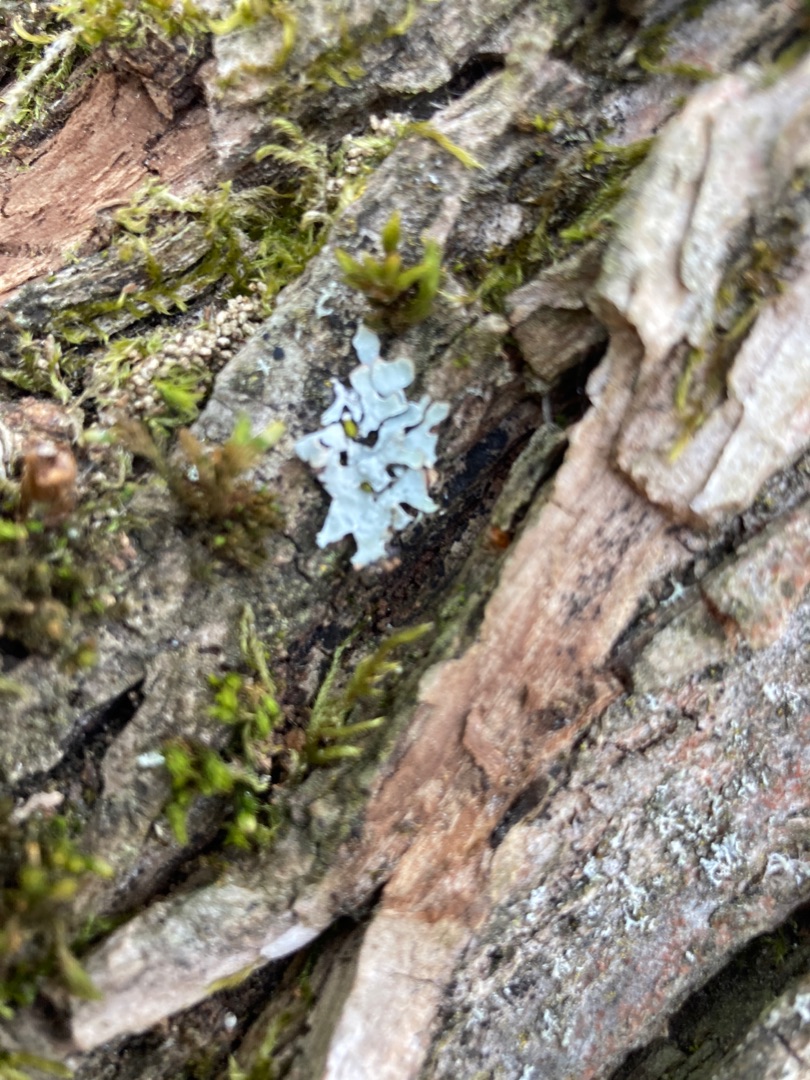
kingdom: Fungi
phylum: Ascomycota
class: Lecanoromycetes
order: Lecanorales
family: Parmeliaceae
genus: Parmelia
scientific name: Parmelia sulcata
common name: Rynket skållav
